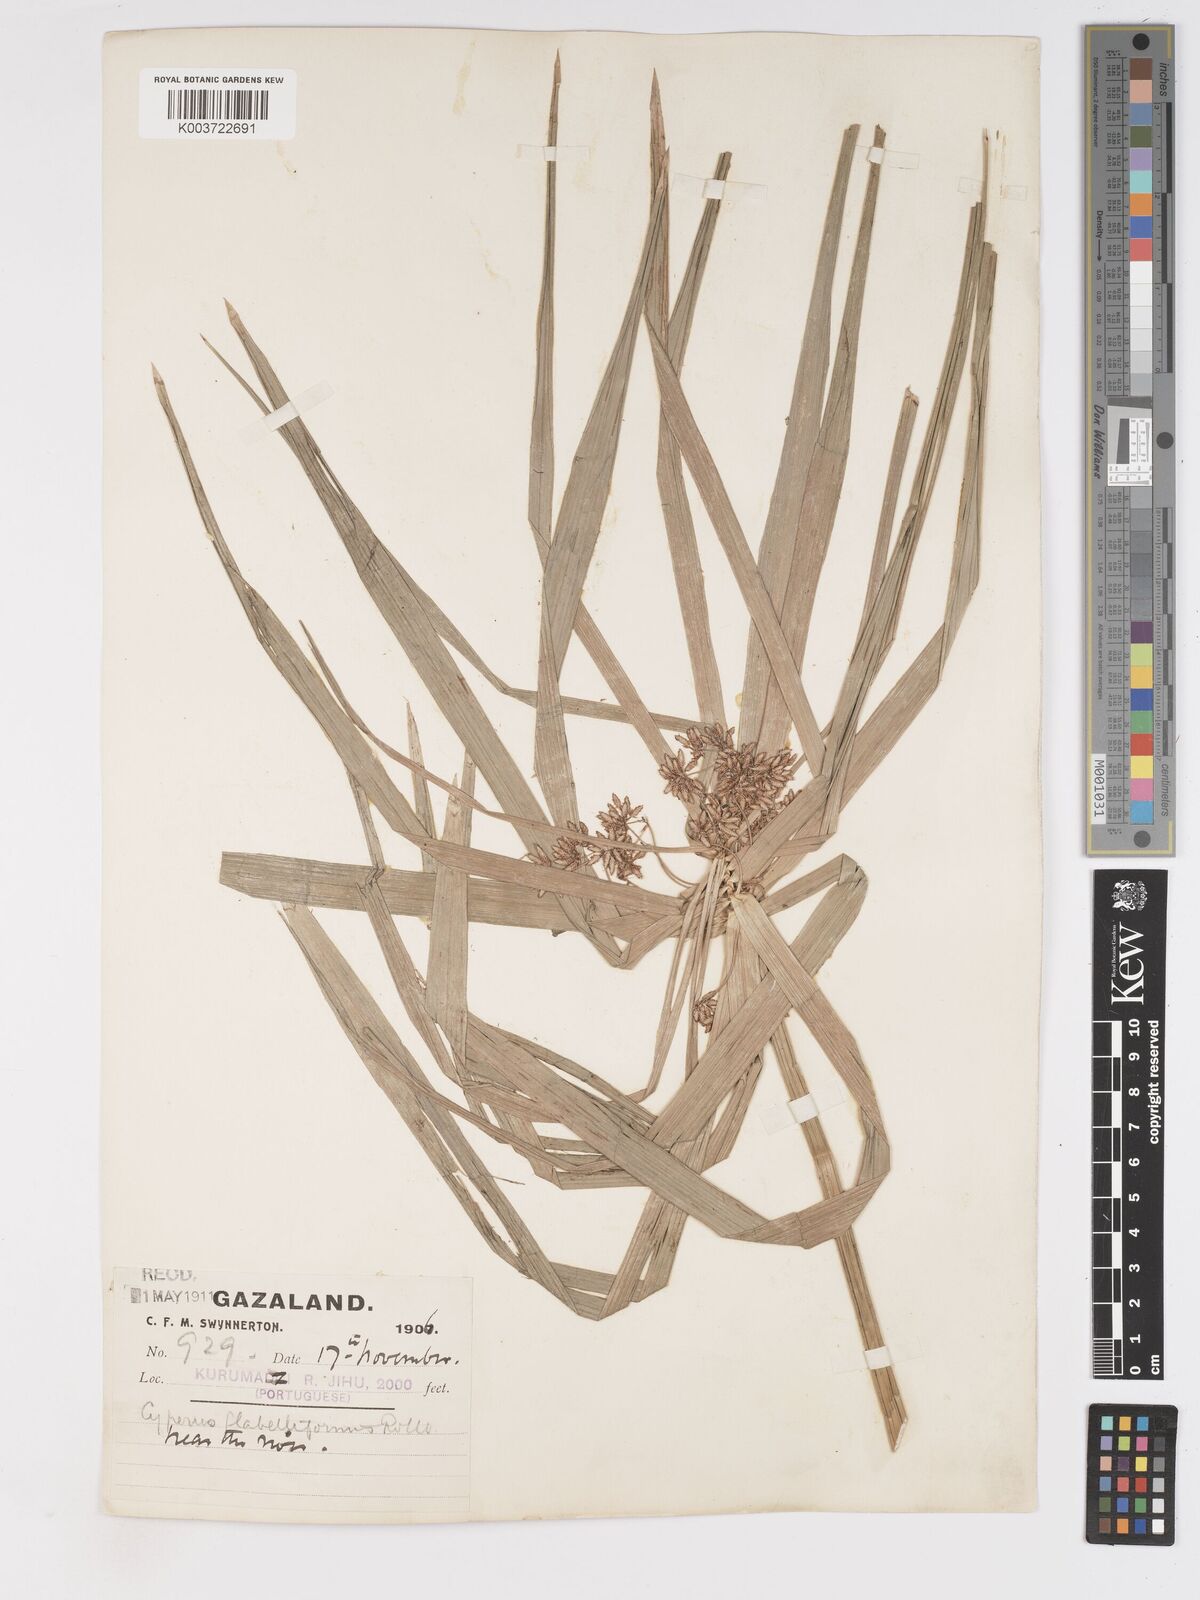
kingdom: Plantae
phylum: Tracheophyta
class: Liliopsida
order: Poales
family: Cyperaceae
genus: Cyperus
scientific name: Cyperus alternifolius
